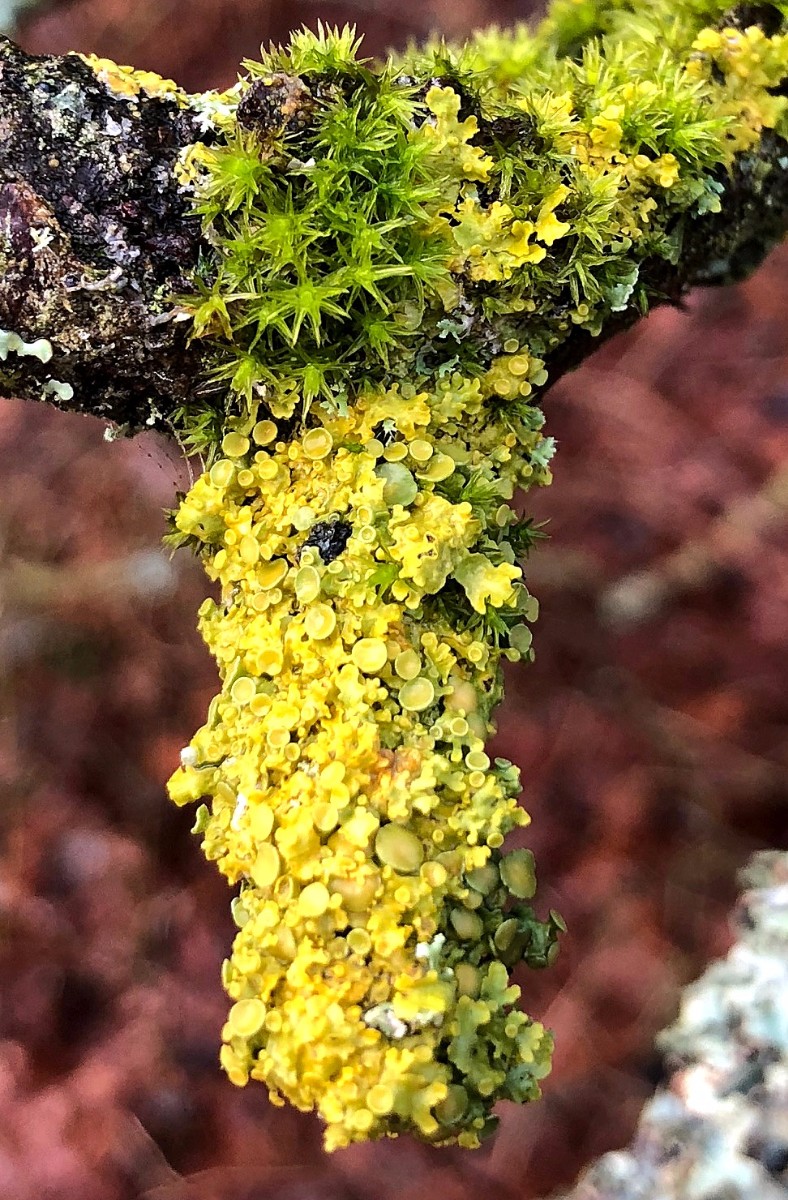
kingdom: Fungi
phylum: Ascomycota
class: Lecanoromycetes
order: Teloschistales
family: Teloschistaceae
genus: Xanthoria
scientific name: Xanthoria parietina
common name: almindelig væggelav
